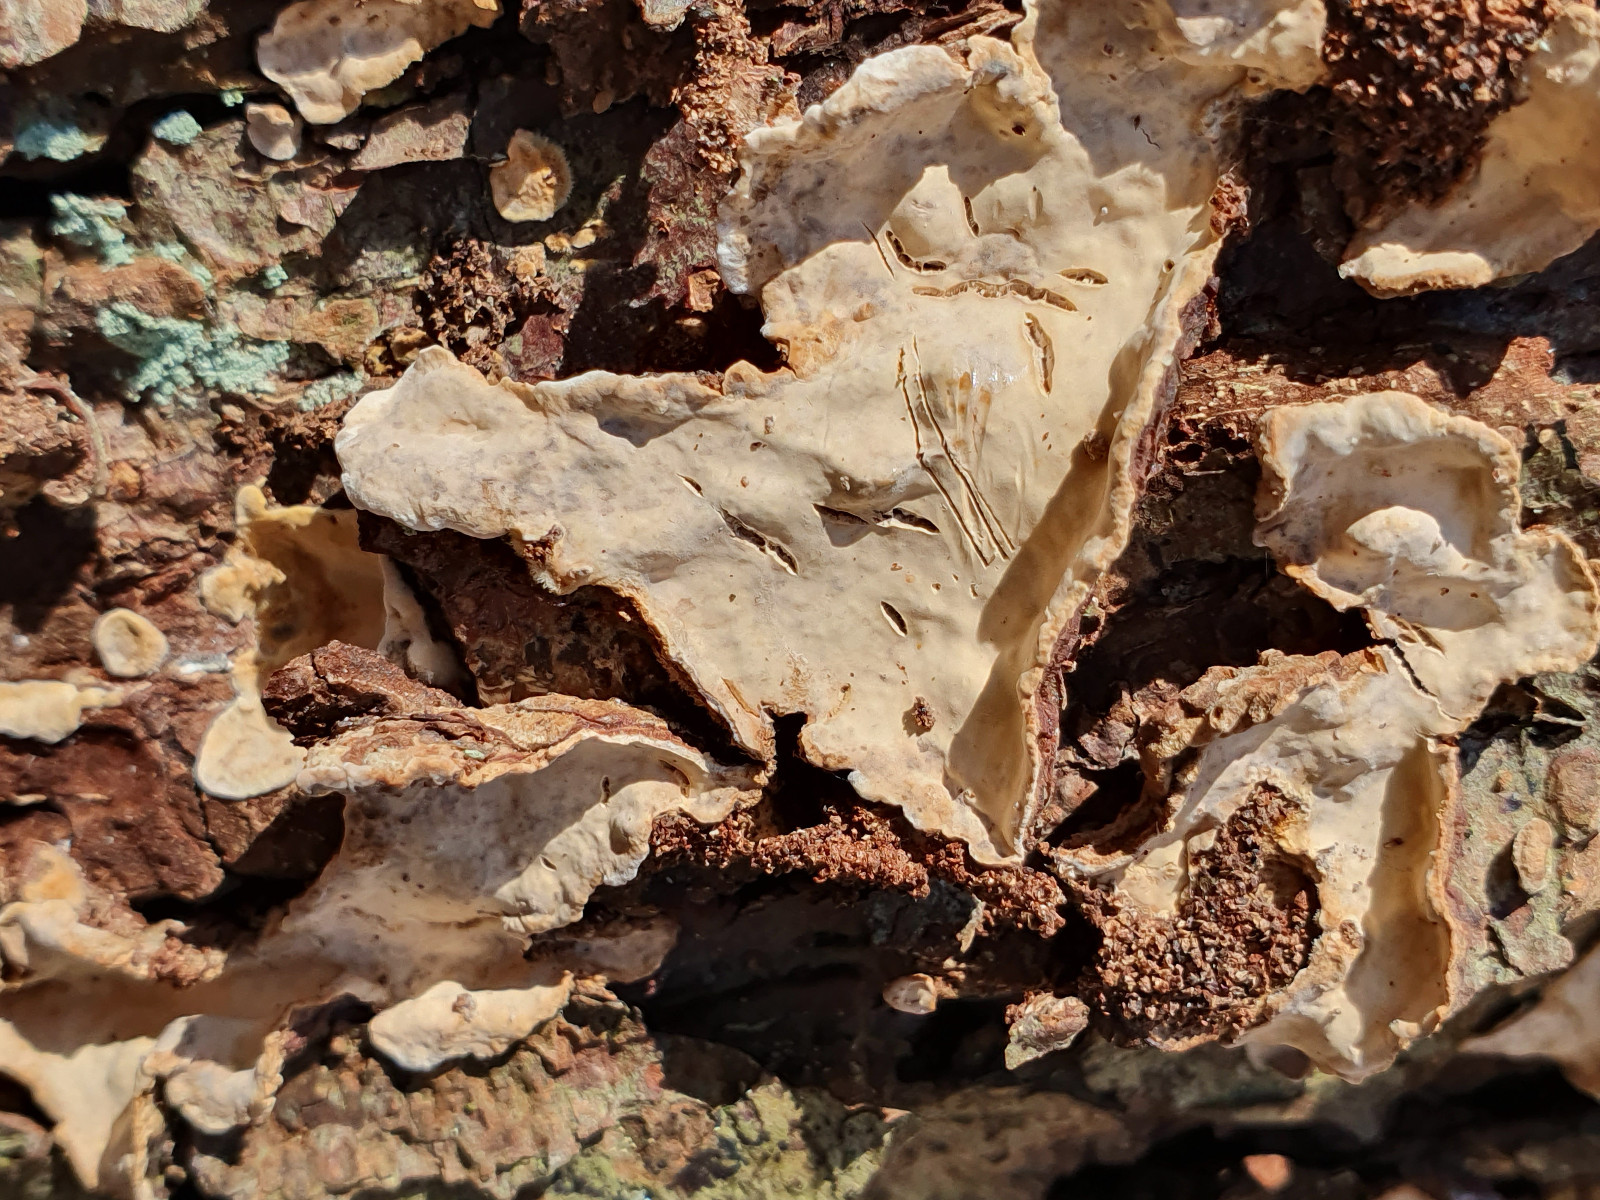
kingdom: Fungi
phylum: Basidiomycota
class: Agaricomycetes
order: Russulales
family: Stereaceae
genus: Stereum
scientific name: Stereum rugosum
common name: rynket lædersvamp
